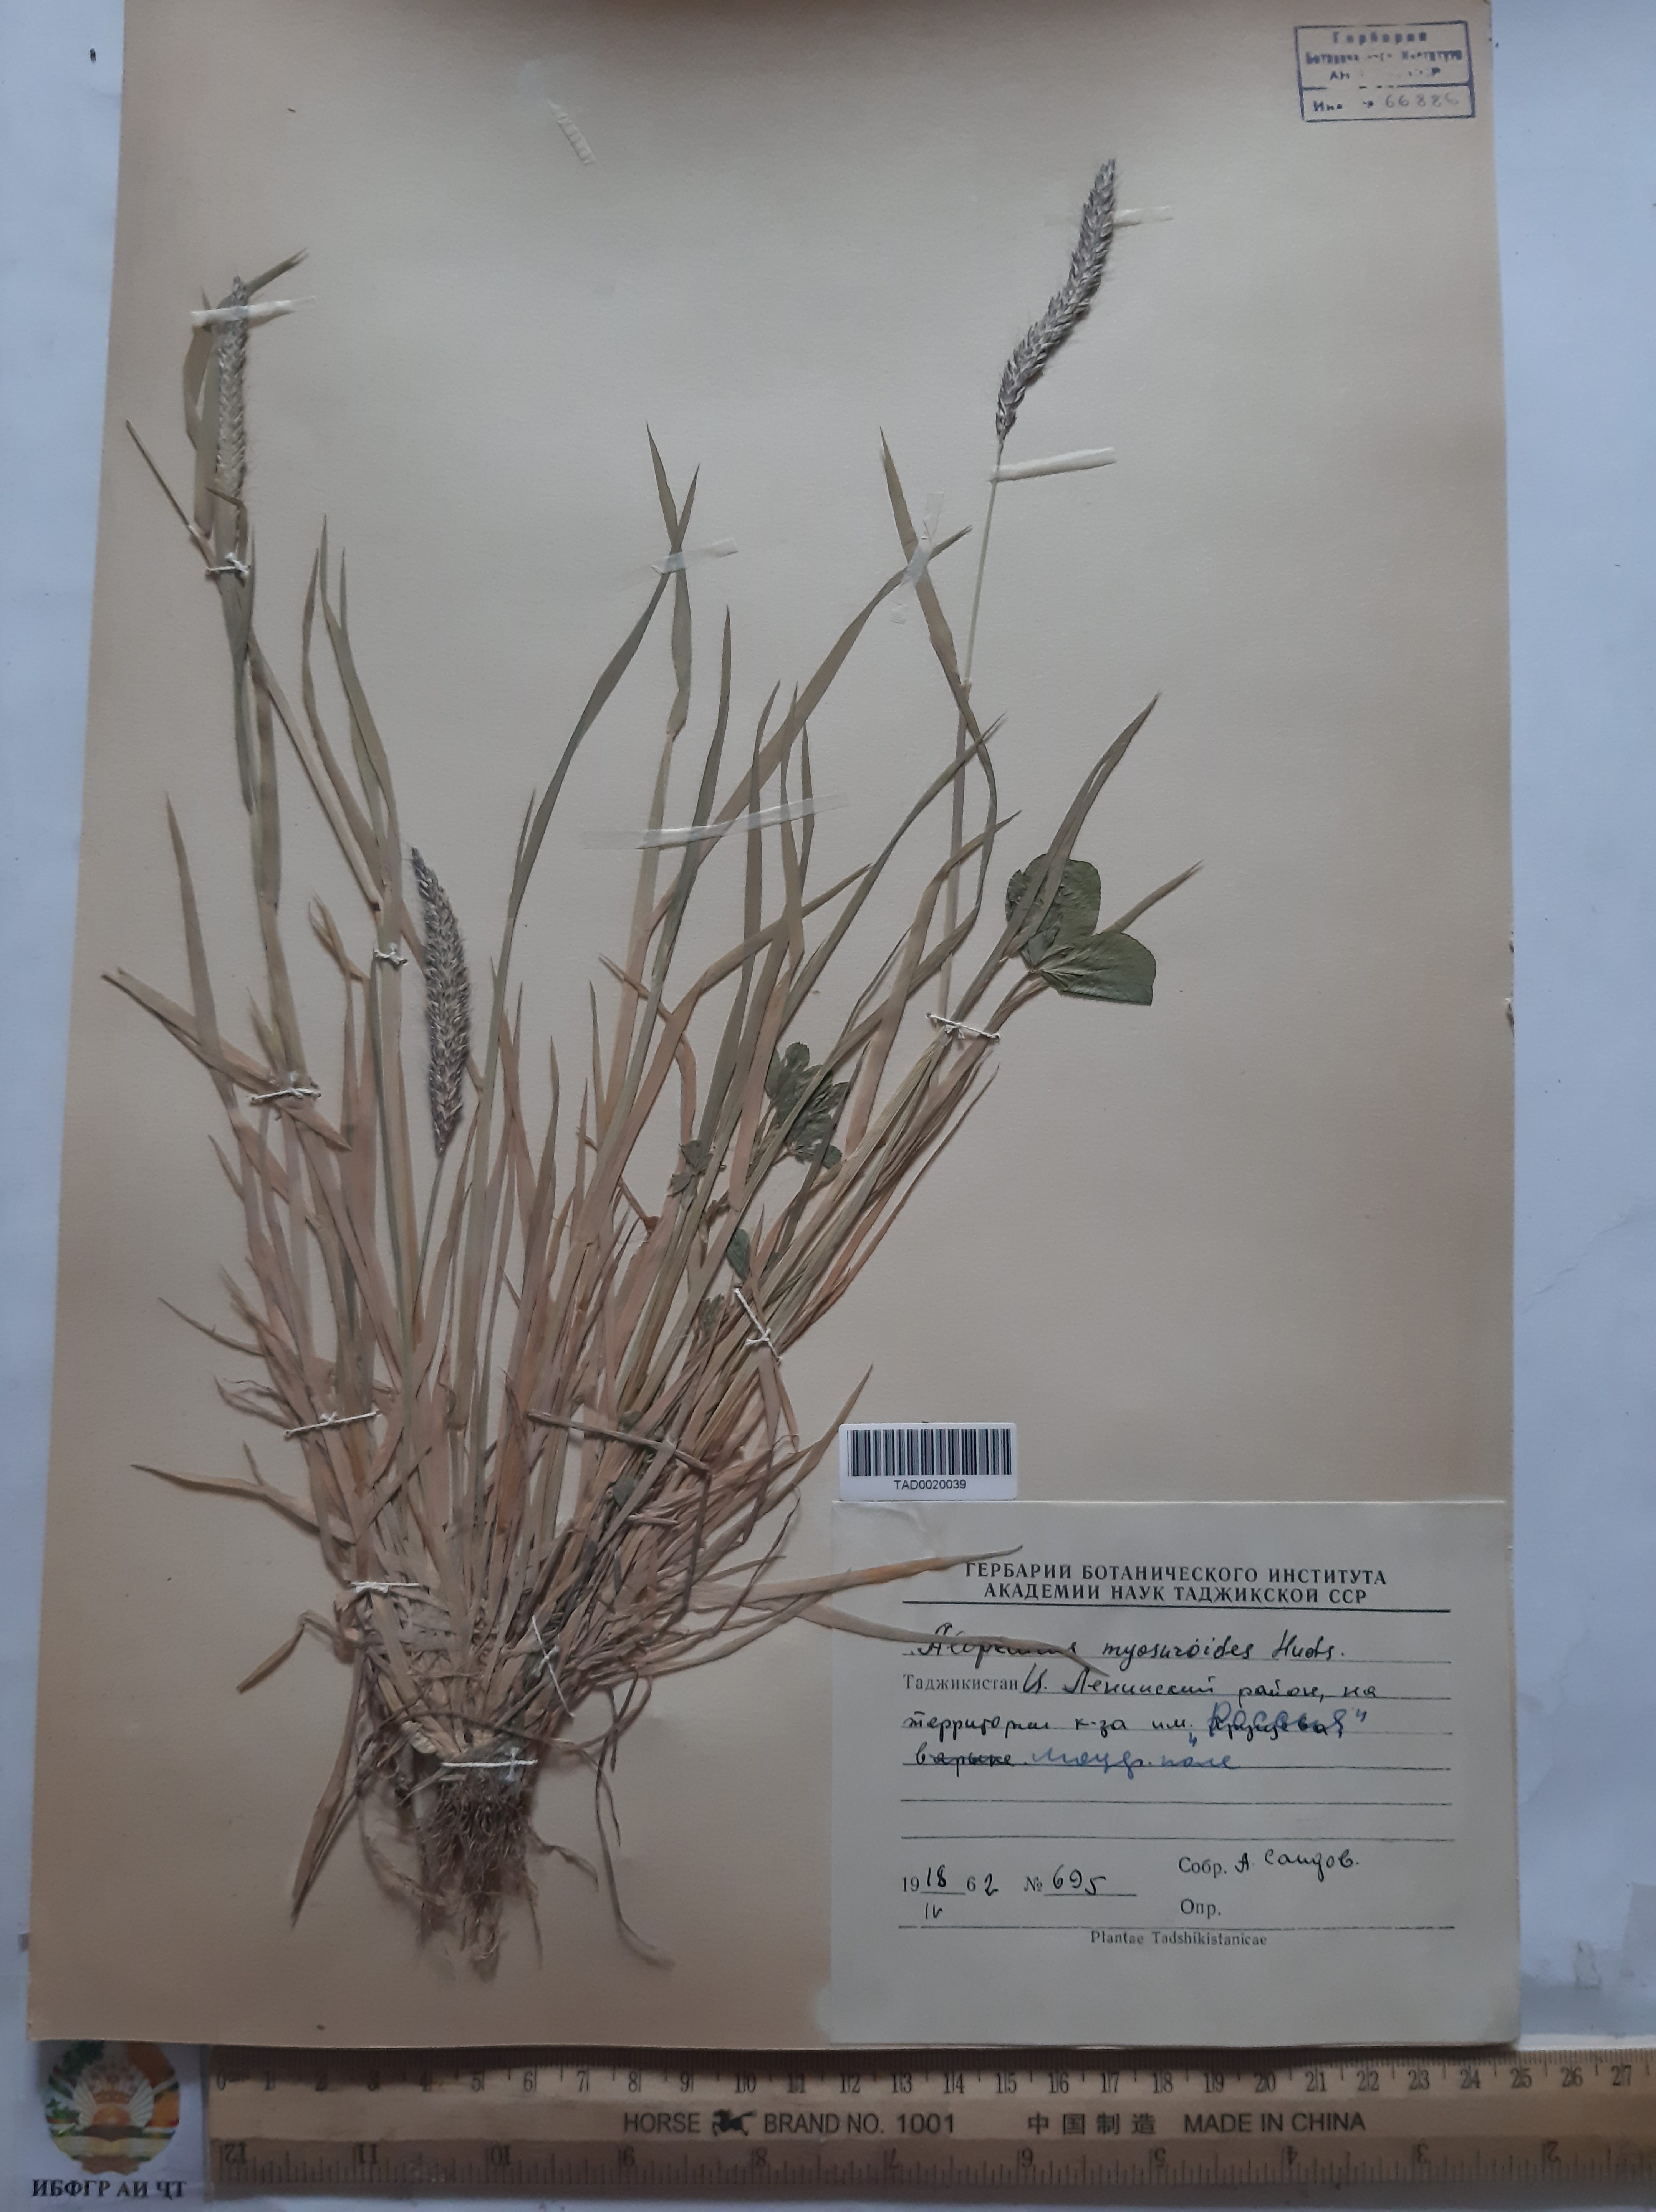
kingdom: Plantae
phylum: Tracheophyta
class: Liliopsida
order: Poales
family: Poaceae
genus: Alopecurus
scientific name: Alopecurus myosuroides
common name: Black-grass
